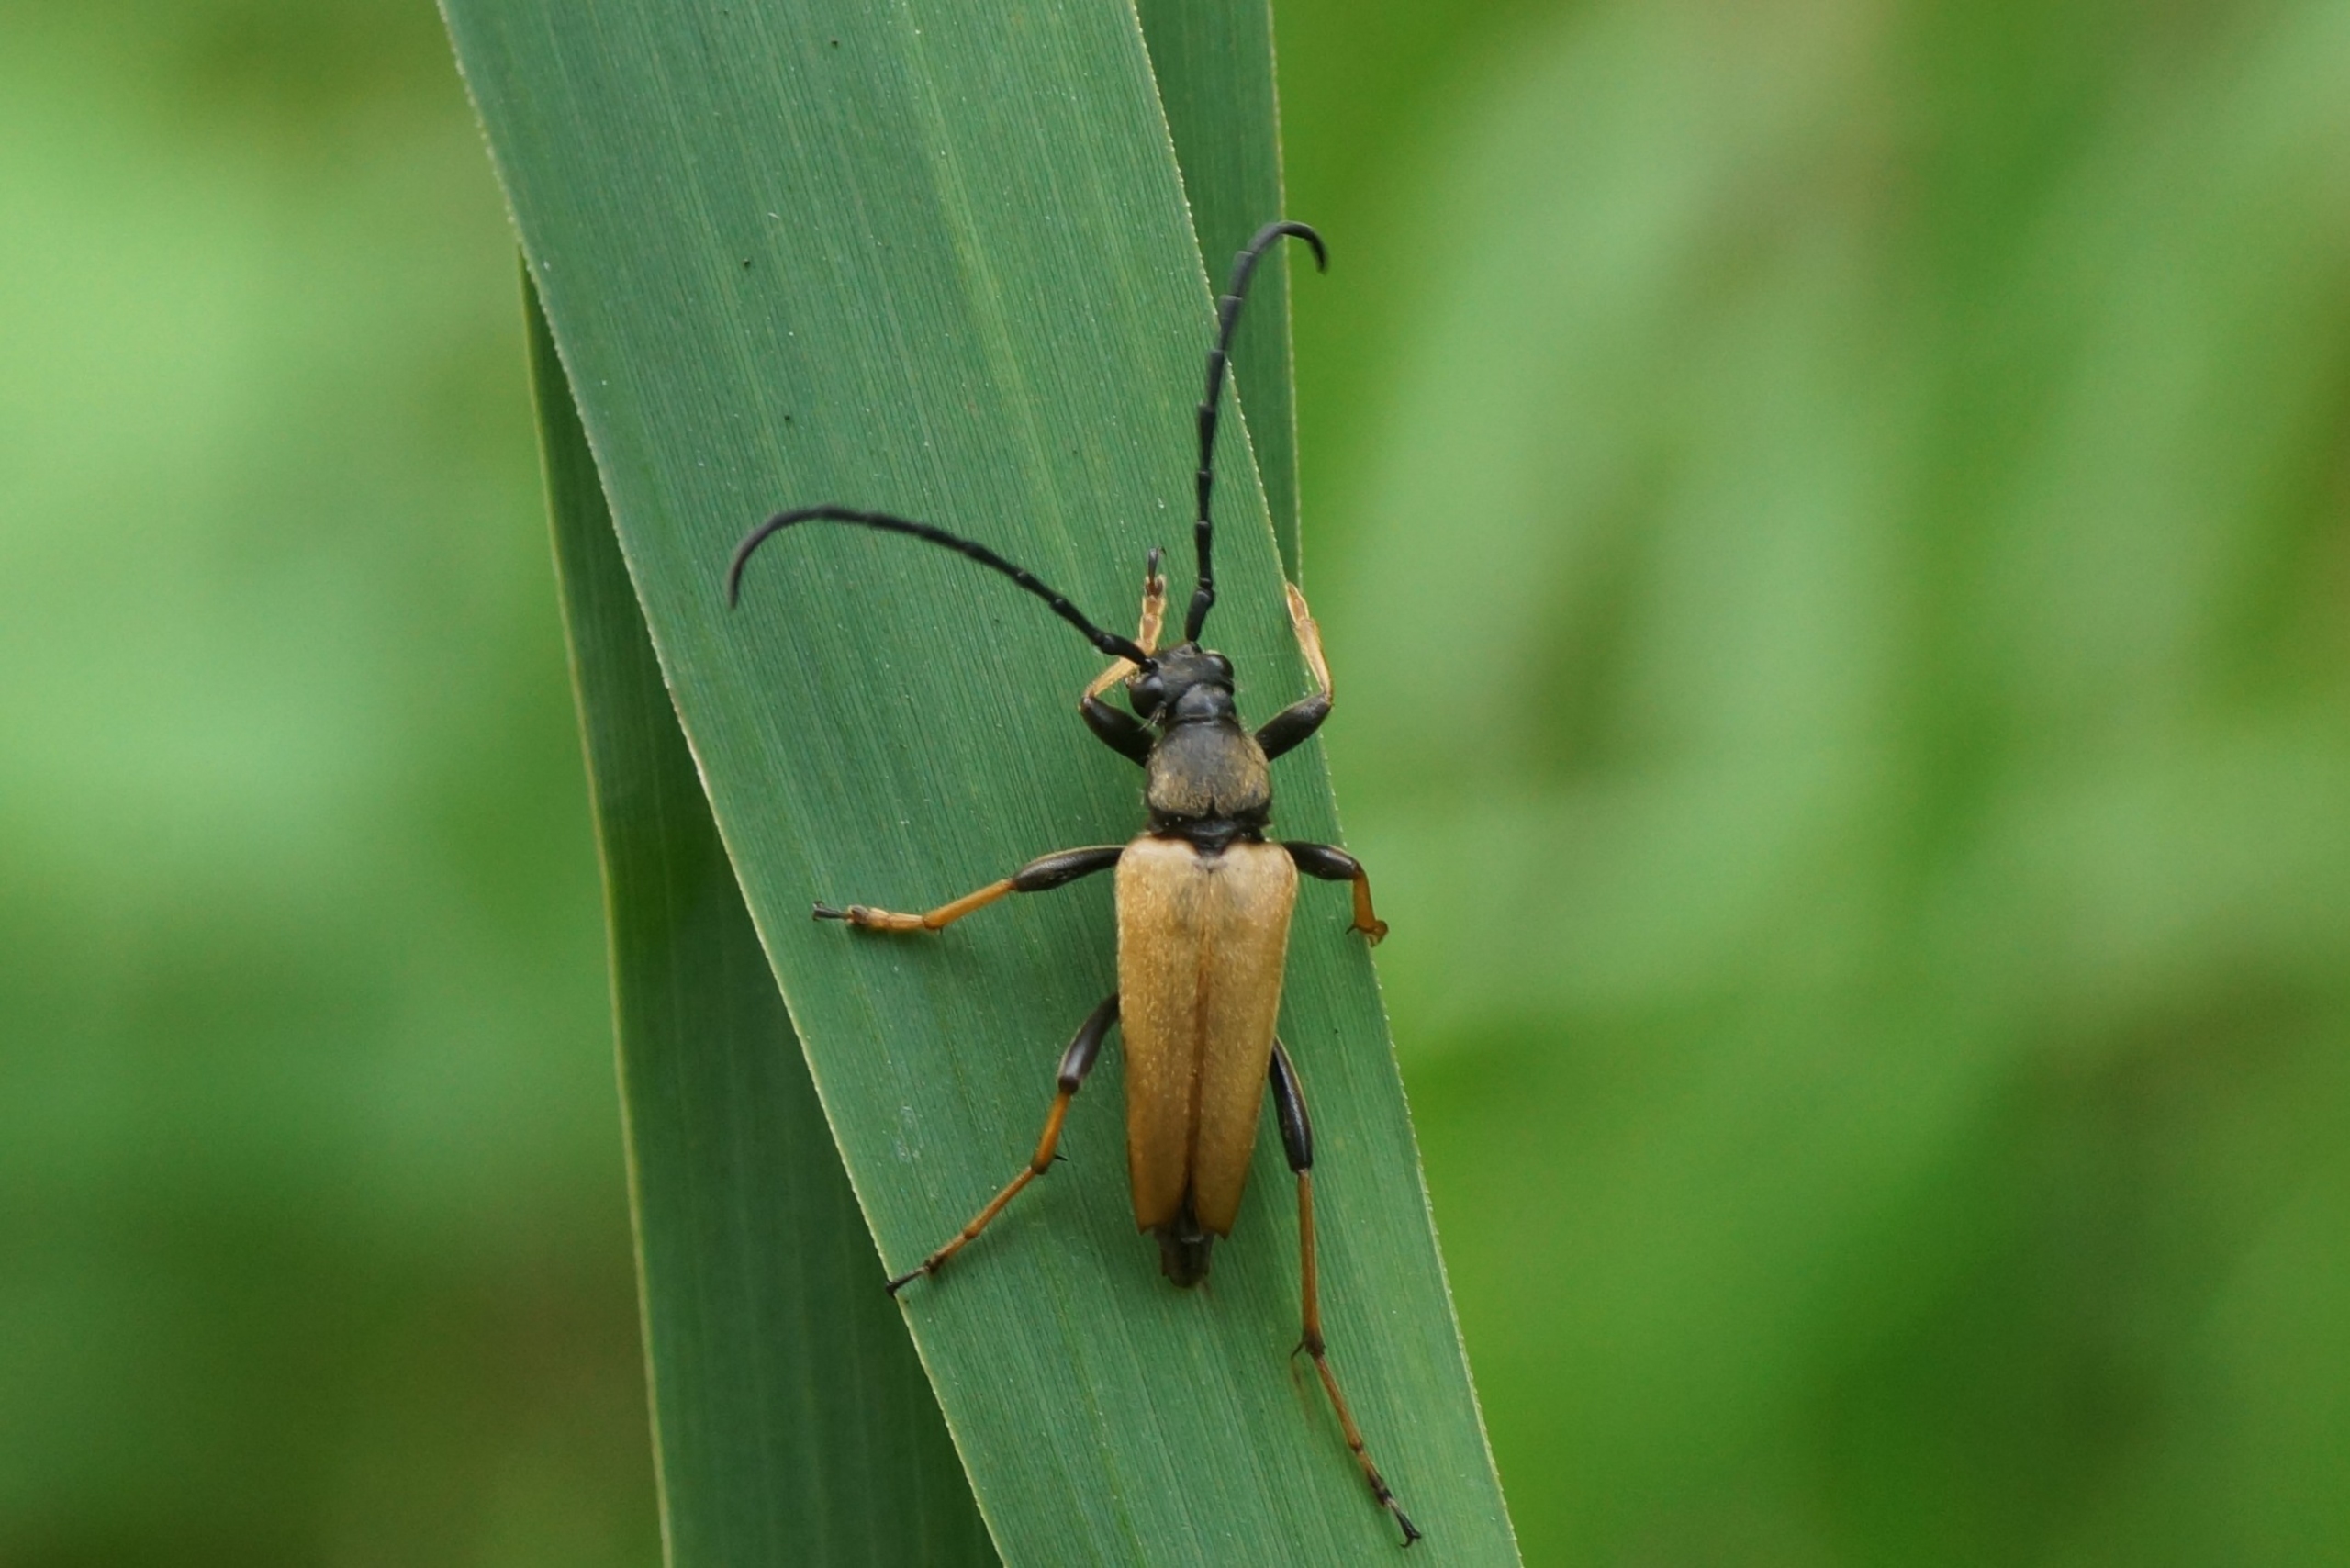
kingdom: Animalia
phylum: Arthropoda
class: Insecta
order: Coleoptera
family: Cerambycidae
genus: Stictoleptura
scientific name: Stictoleptura rubra
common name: Rød blomsterbuk
